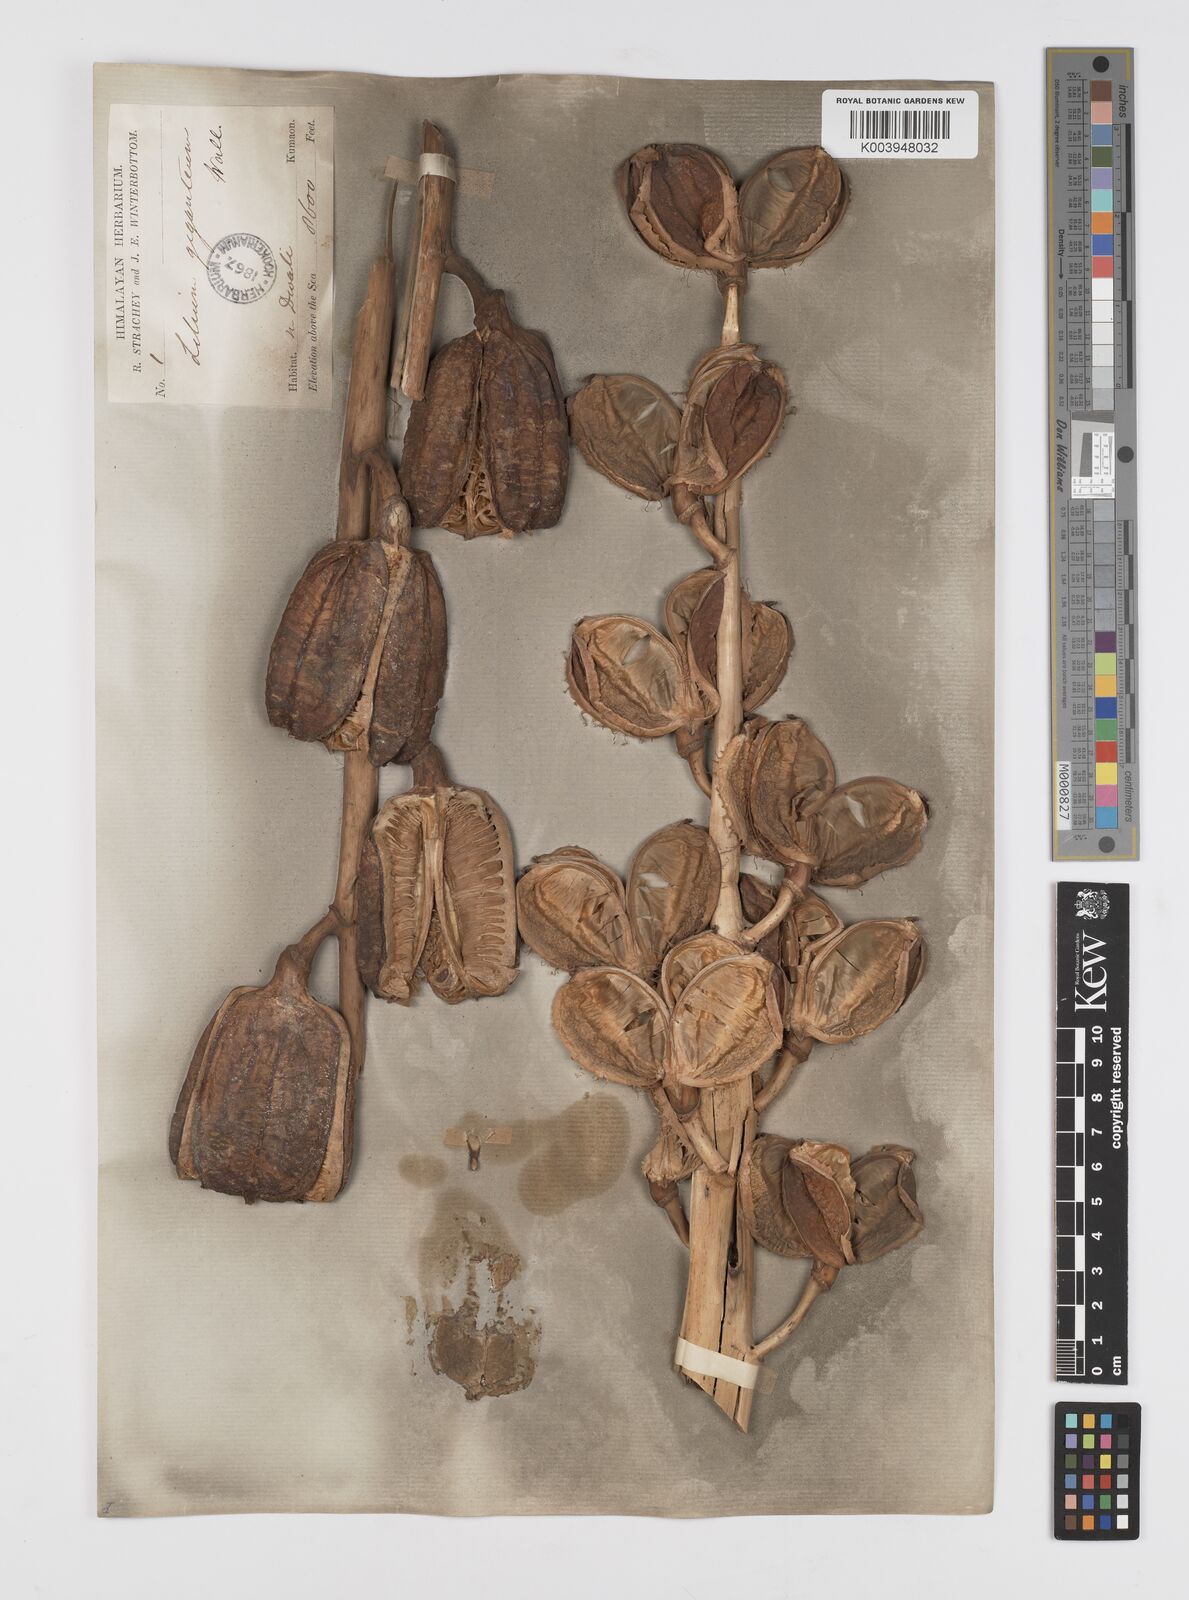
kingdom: Plantae
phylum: Tracheophyta
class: Liliopsida
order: Liliales
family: Liliaceae
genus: Cardiocrinum
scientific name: Cardiocrinum giganteum
